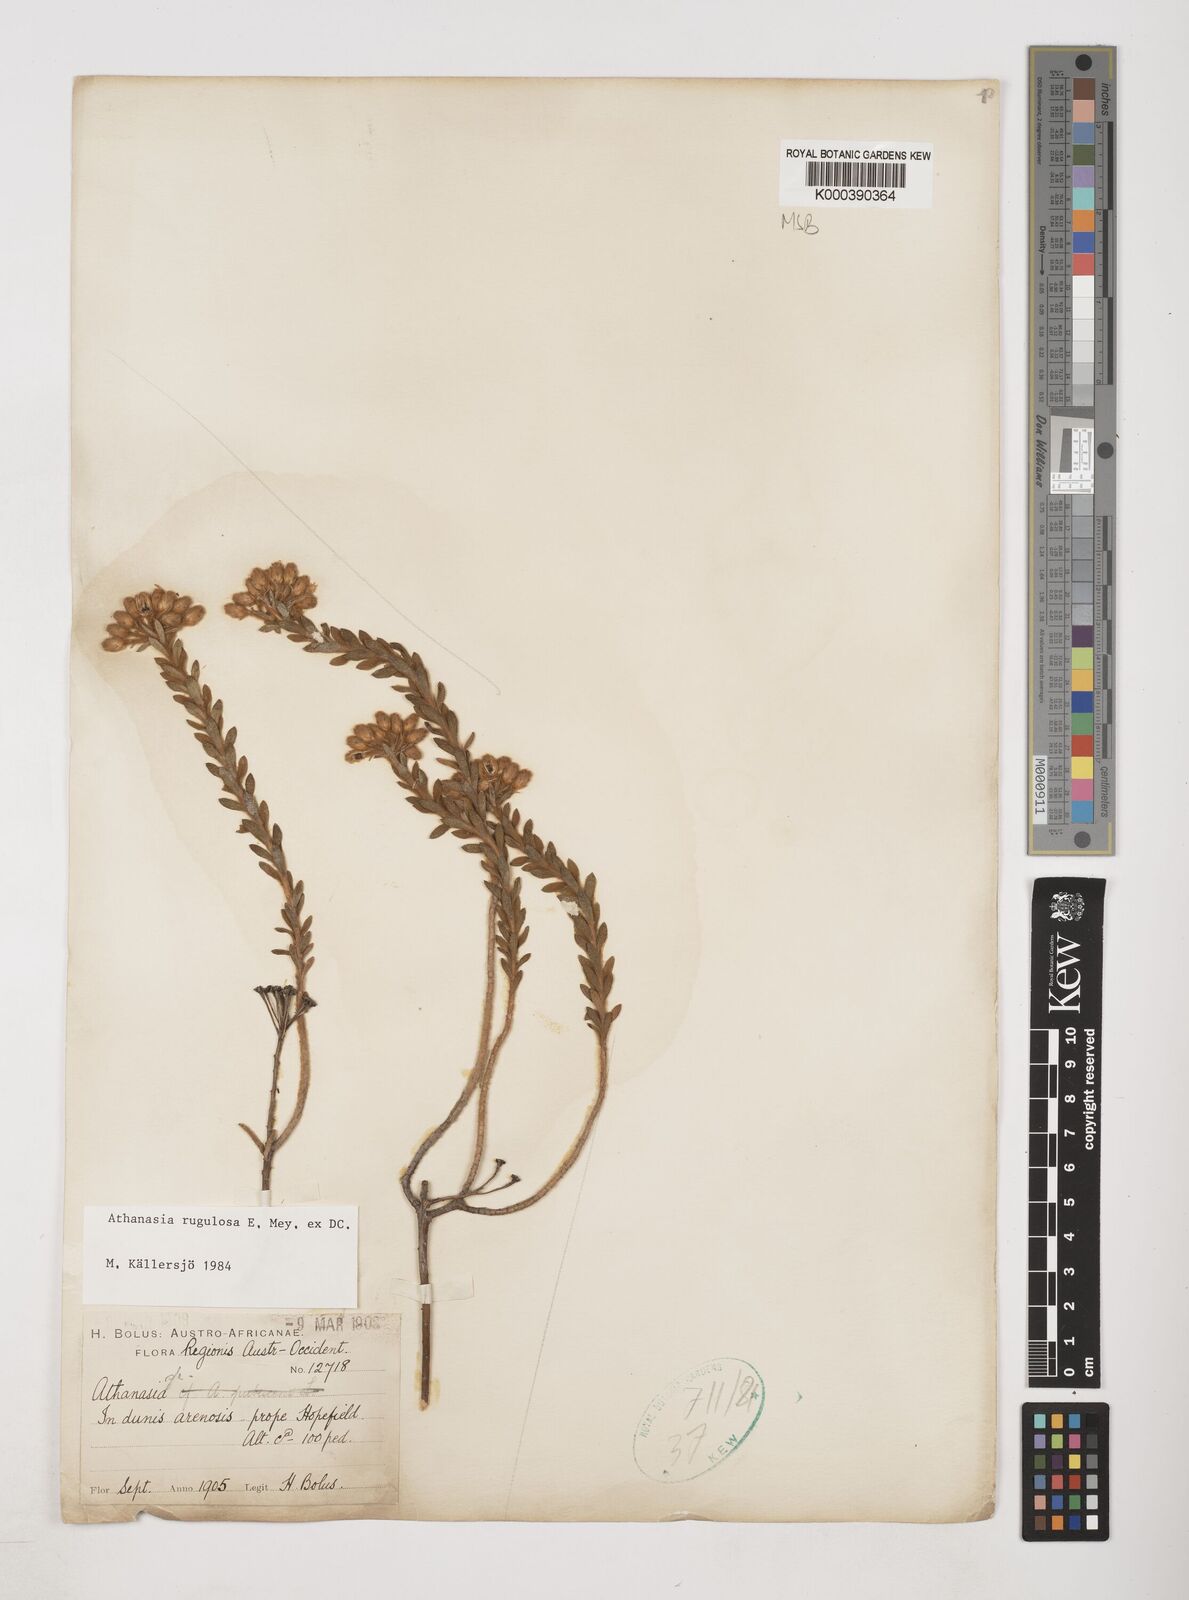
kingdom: Plantae
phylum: Tracheophyta
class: Magnoliopsida
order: Asterales
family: Asteraceae
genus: Athanasia
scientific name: Athanasia rugulosa
